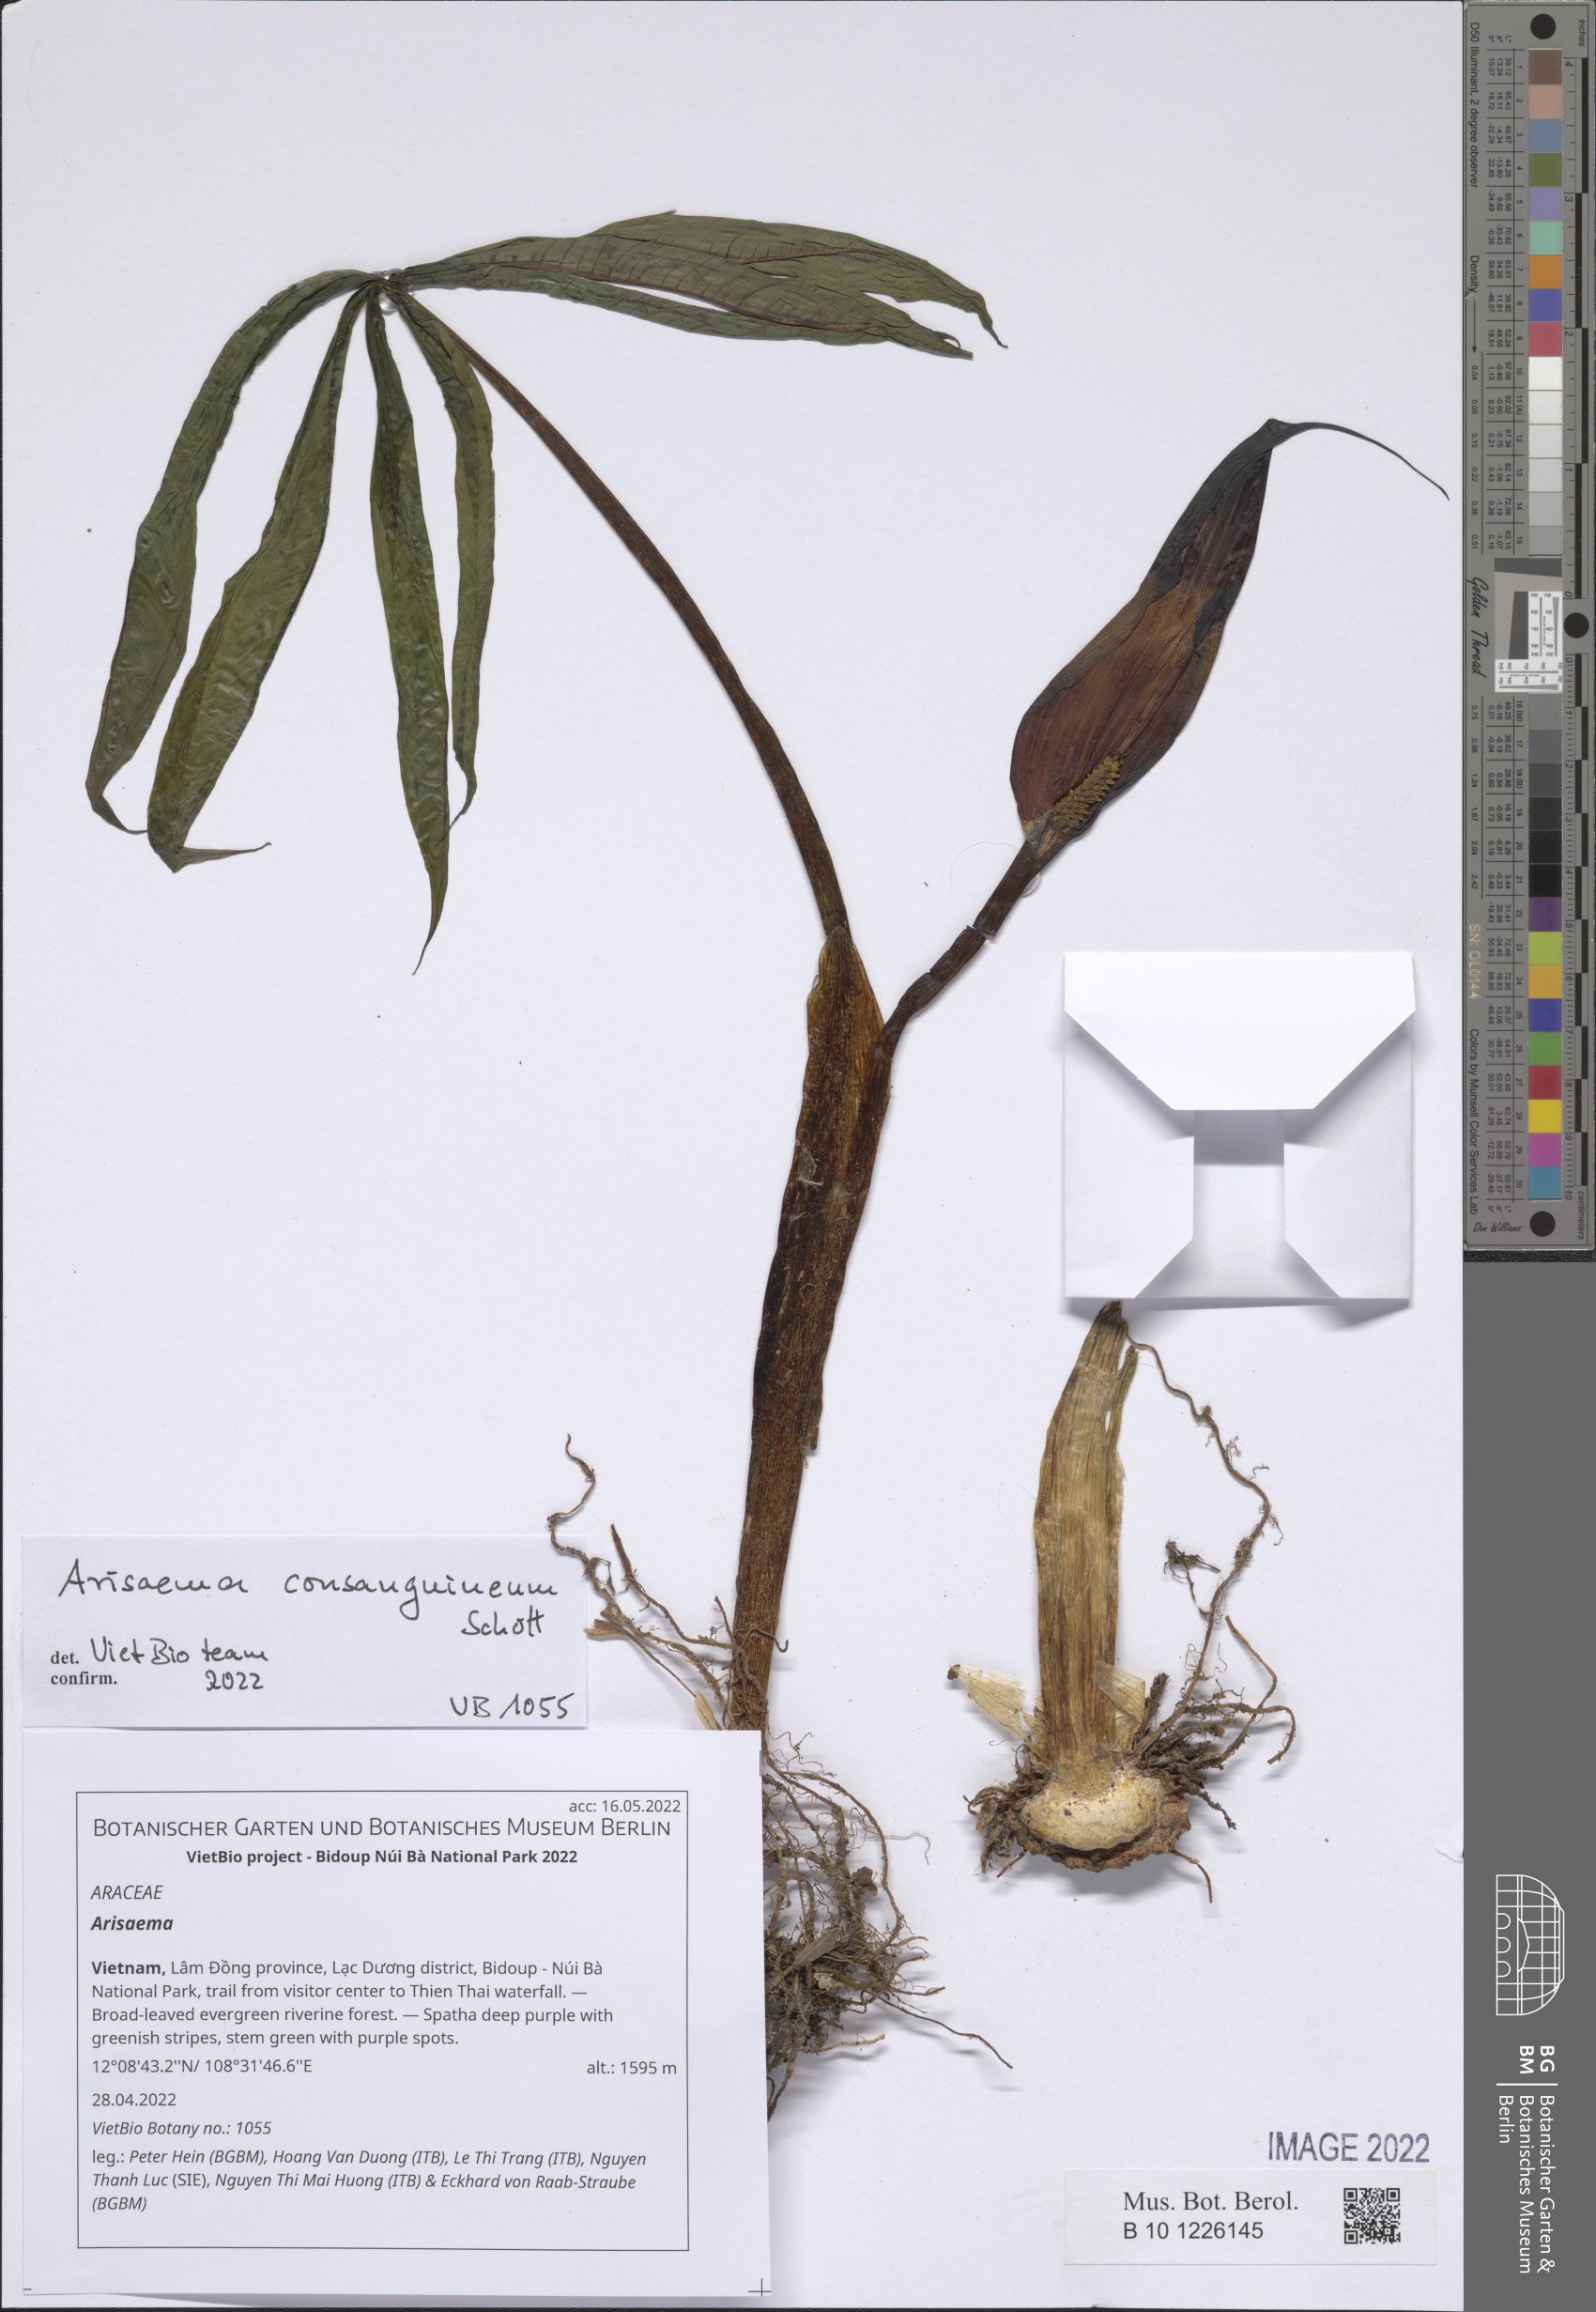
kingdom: Plantae
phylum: Tracheophyta
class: Liliopsida
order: Alismatales
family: Araceae
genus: Arisaema
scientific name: Arisaema
